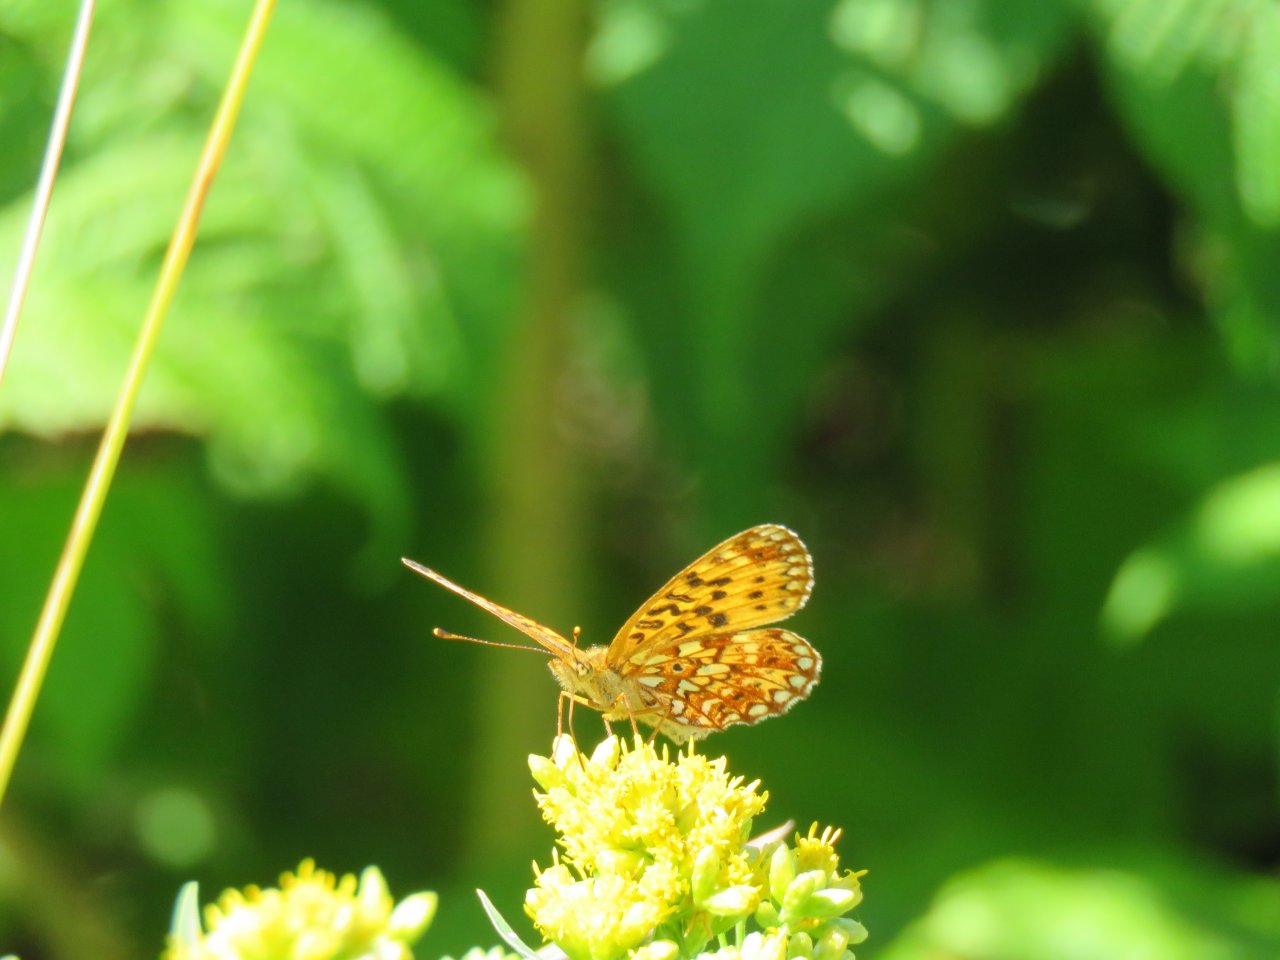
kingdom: Animalia
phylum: Arthropoda
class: Insecta
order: Lepidoptera
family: Nymphalidae
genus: Boloria
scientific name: Boloria selene
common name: Silver-bordered Fritillary
